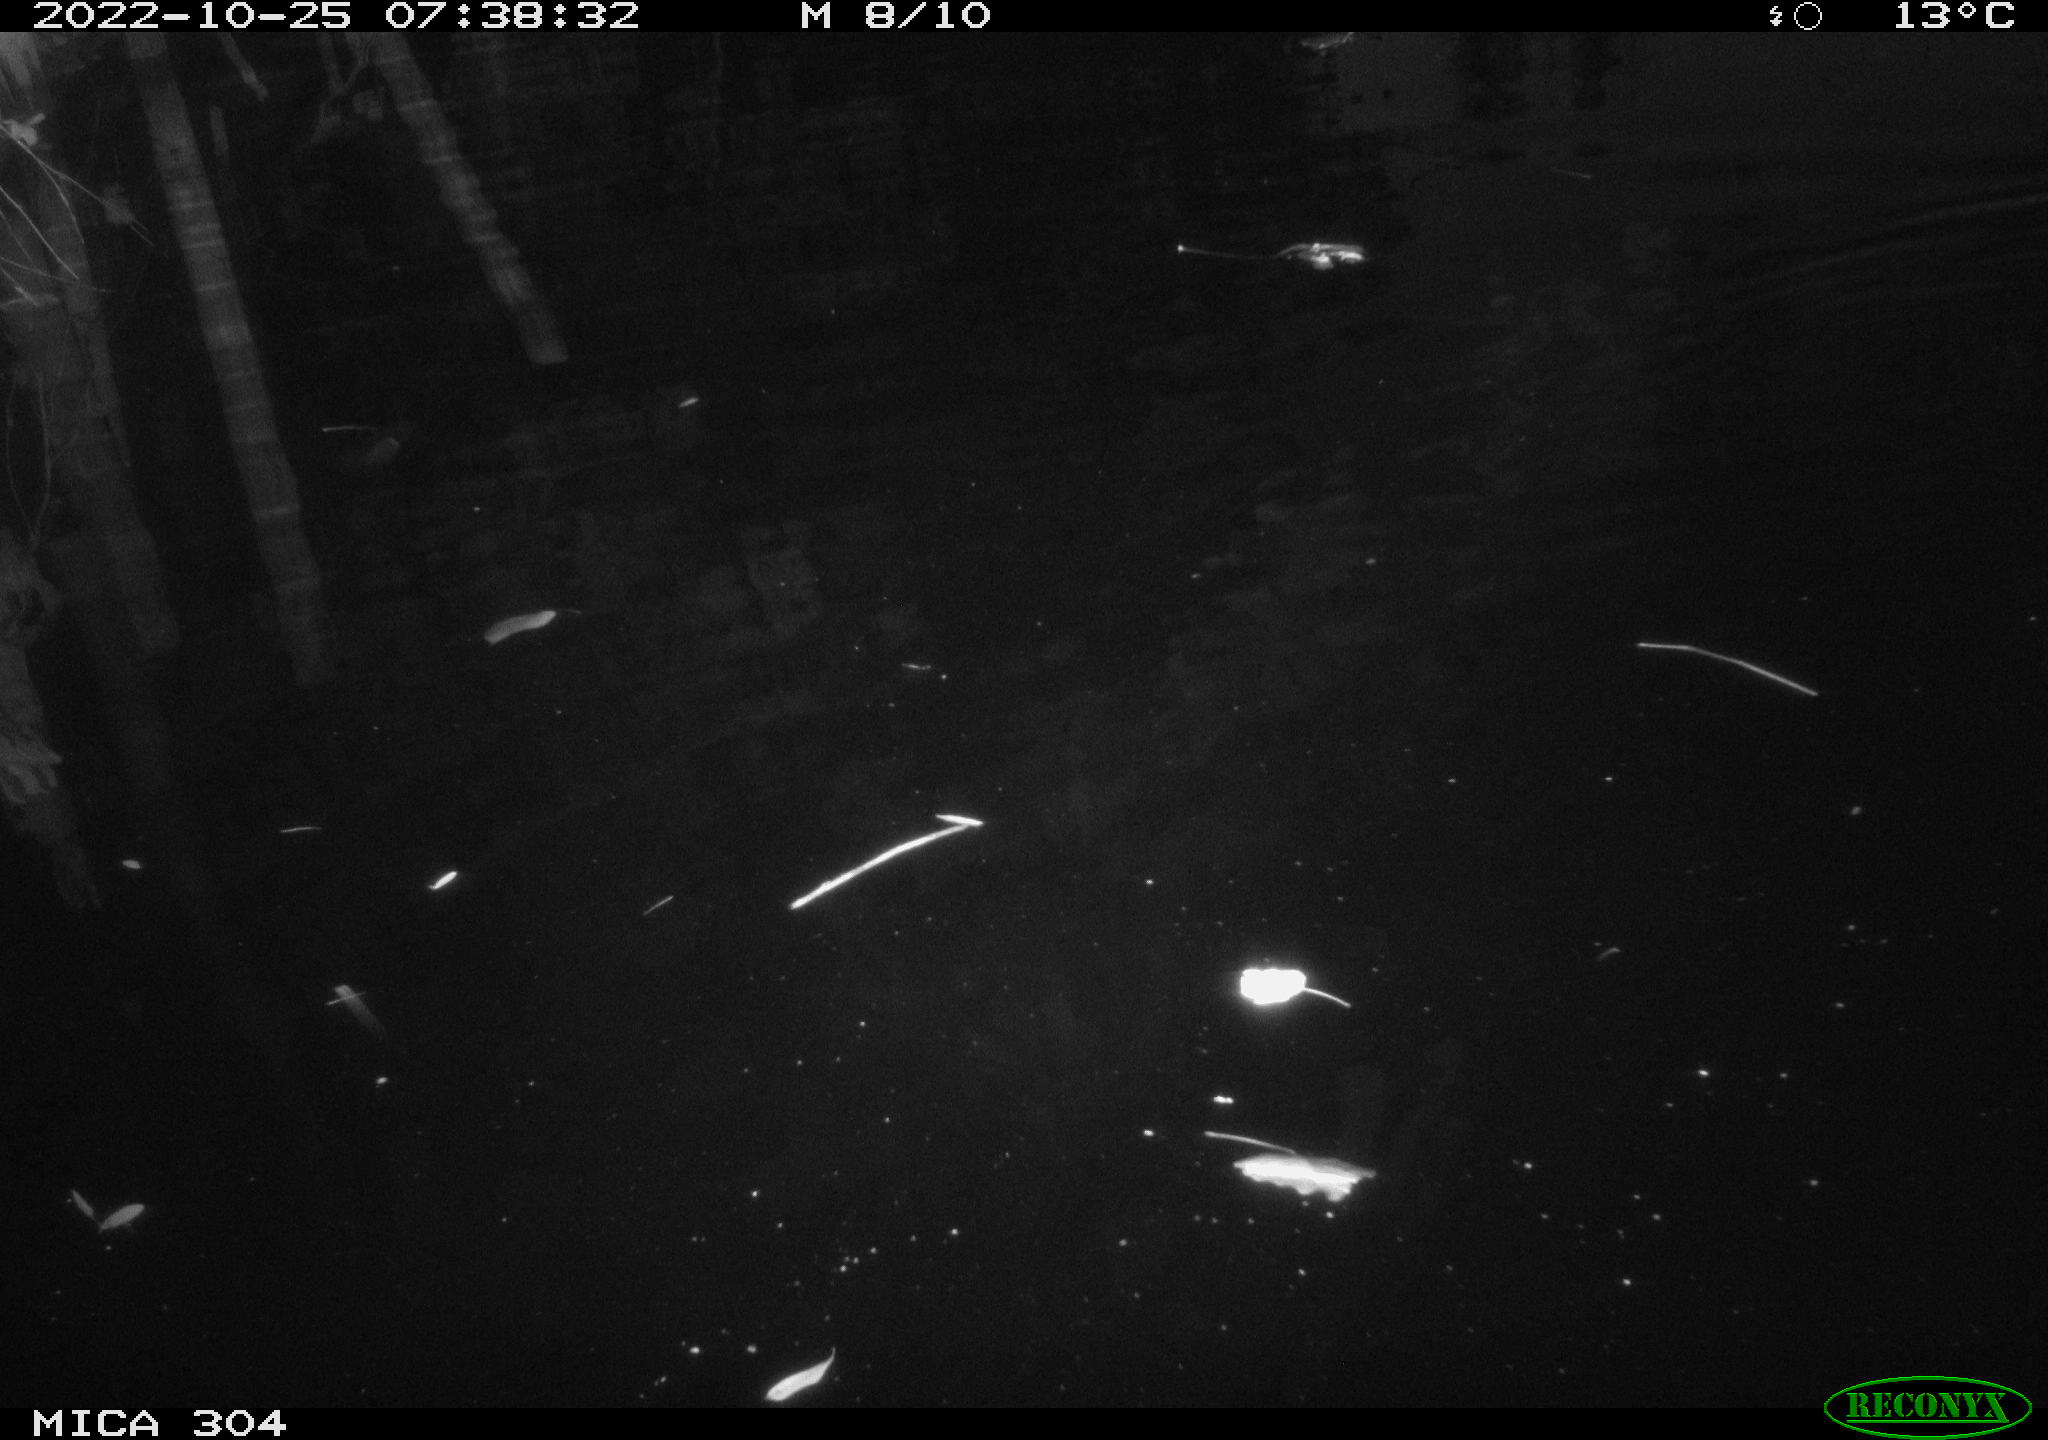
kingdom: Animalia
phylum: Chordata
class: Aves
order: Anseriformes
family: Anatidae
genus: Anas
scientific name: Anas
